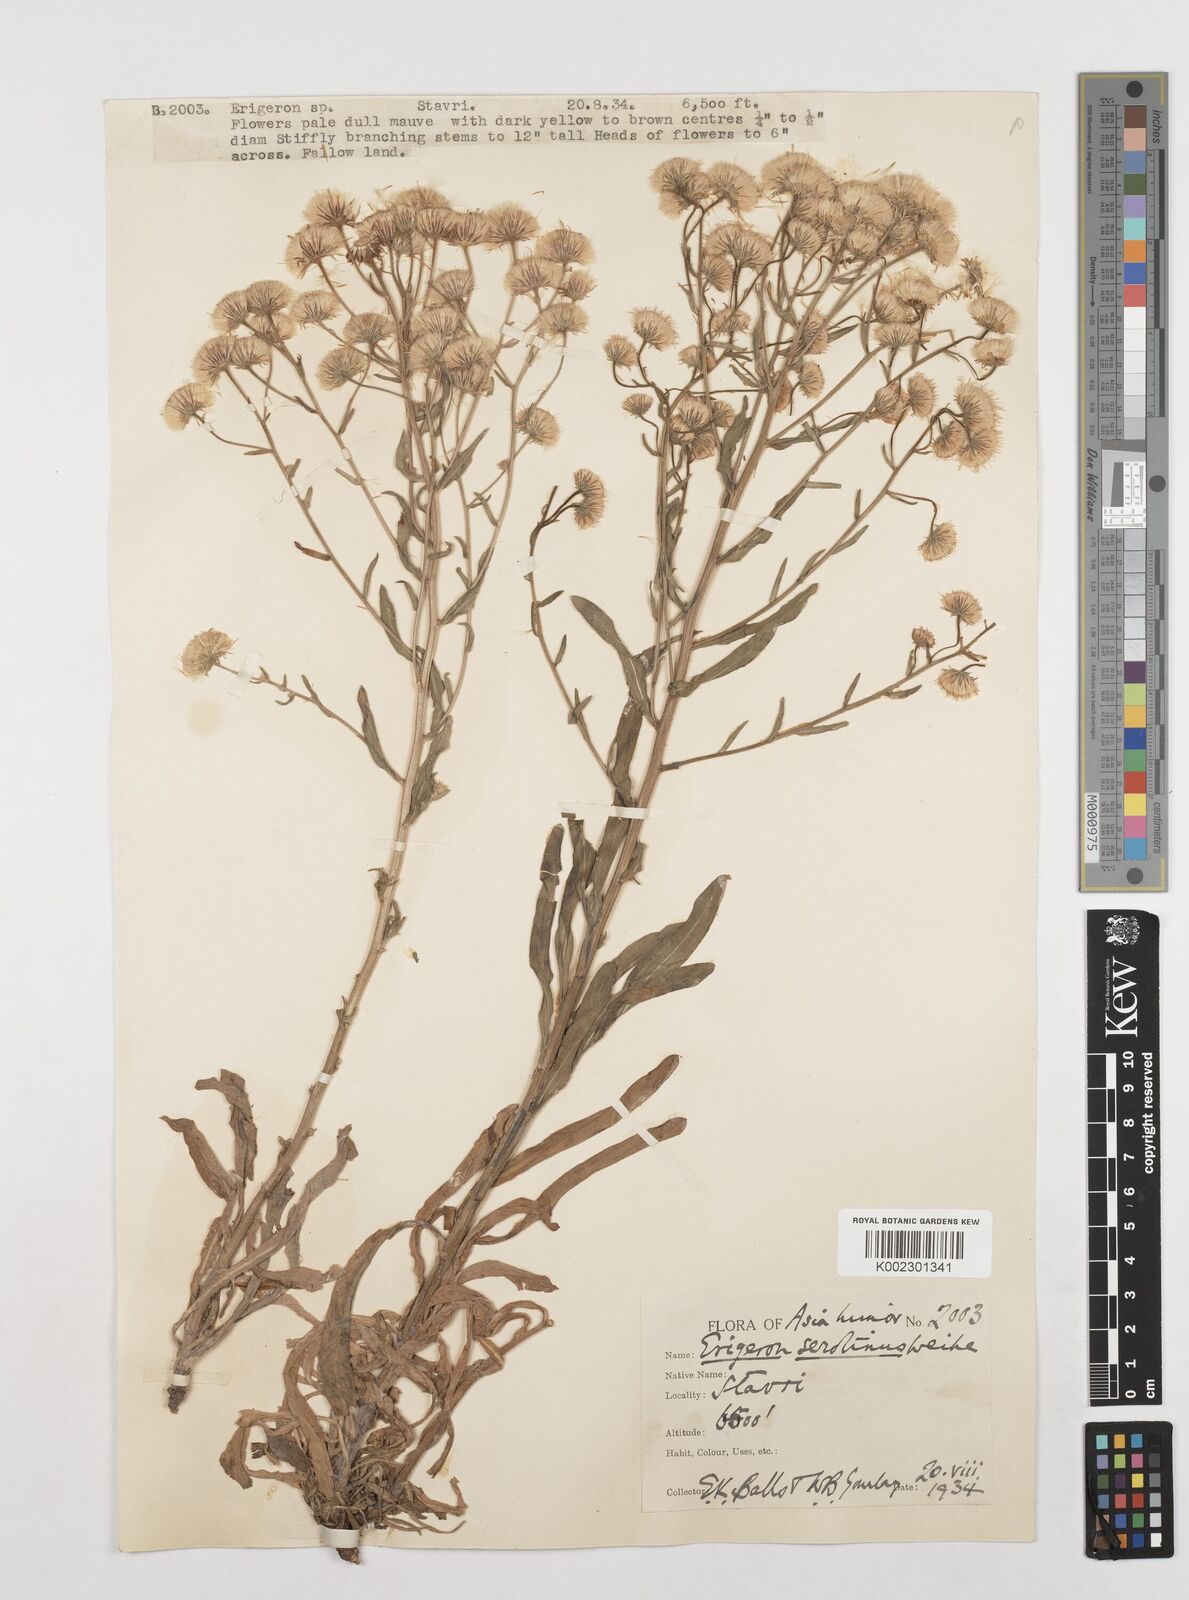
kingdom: Plantae
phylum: Tracheophyta
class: Magnoliopsida
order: Asterales
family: Asteraceae
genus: Erigeron
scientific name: Erigeron muralis
